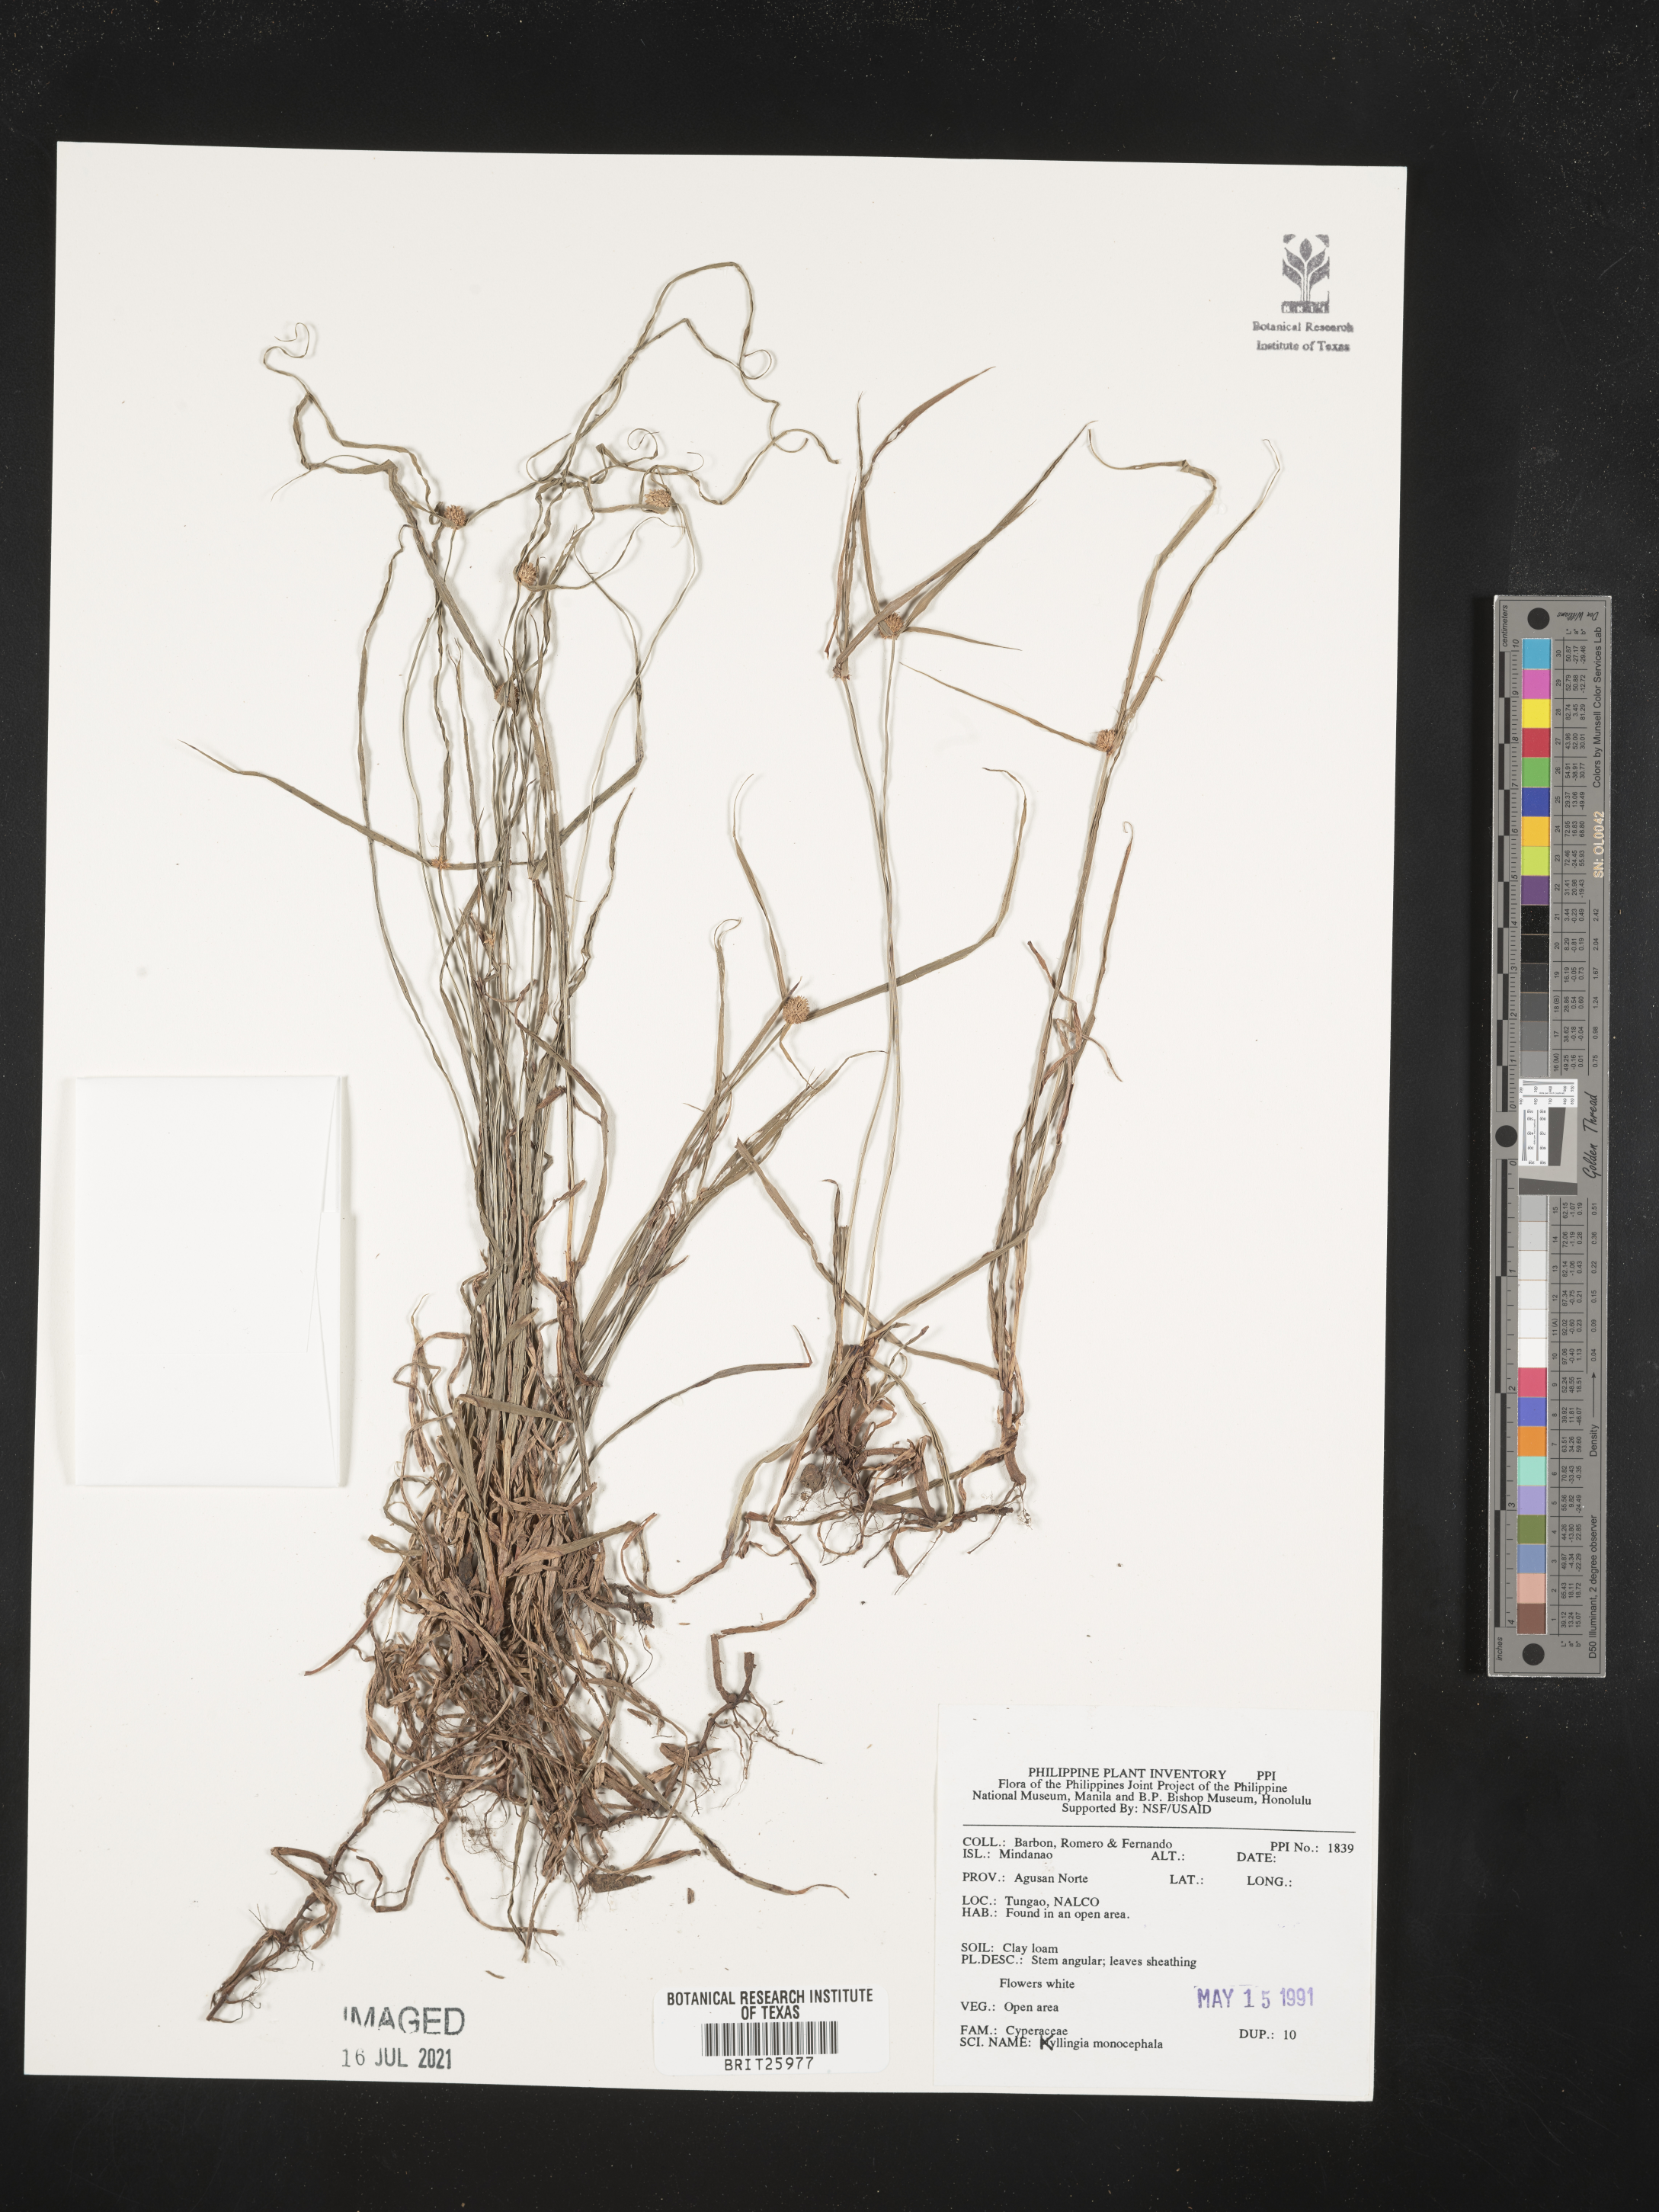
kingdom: Plantae
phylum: Tracheophyta
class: Liliopsida
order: Poales
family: Cyperaceae
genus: Cyperus
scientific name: Cyperus hortensis
